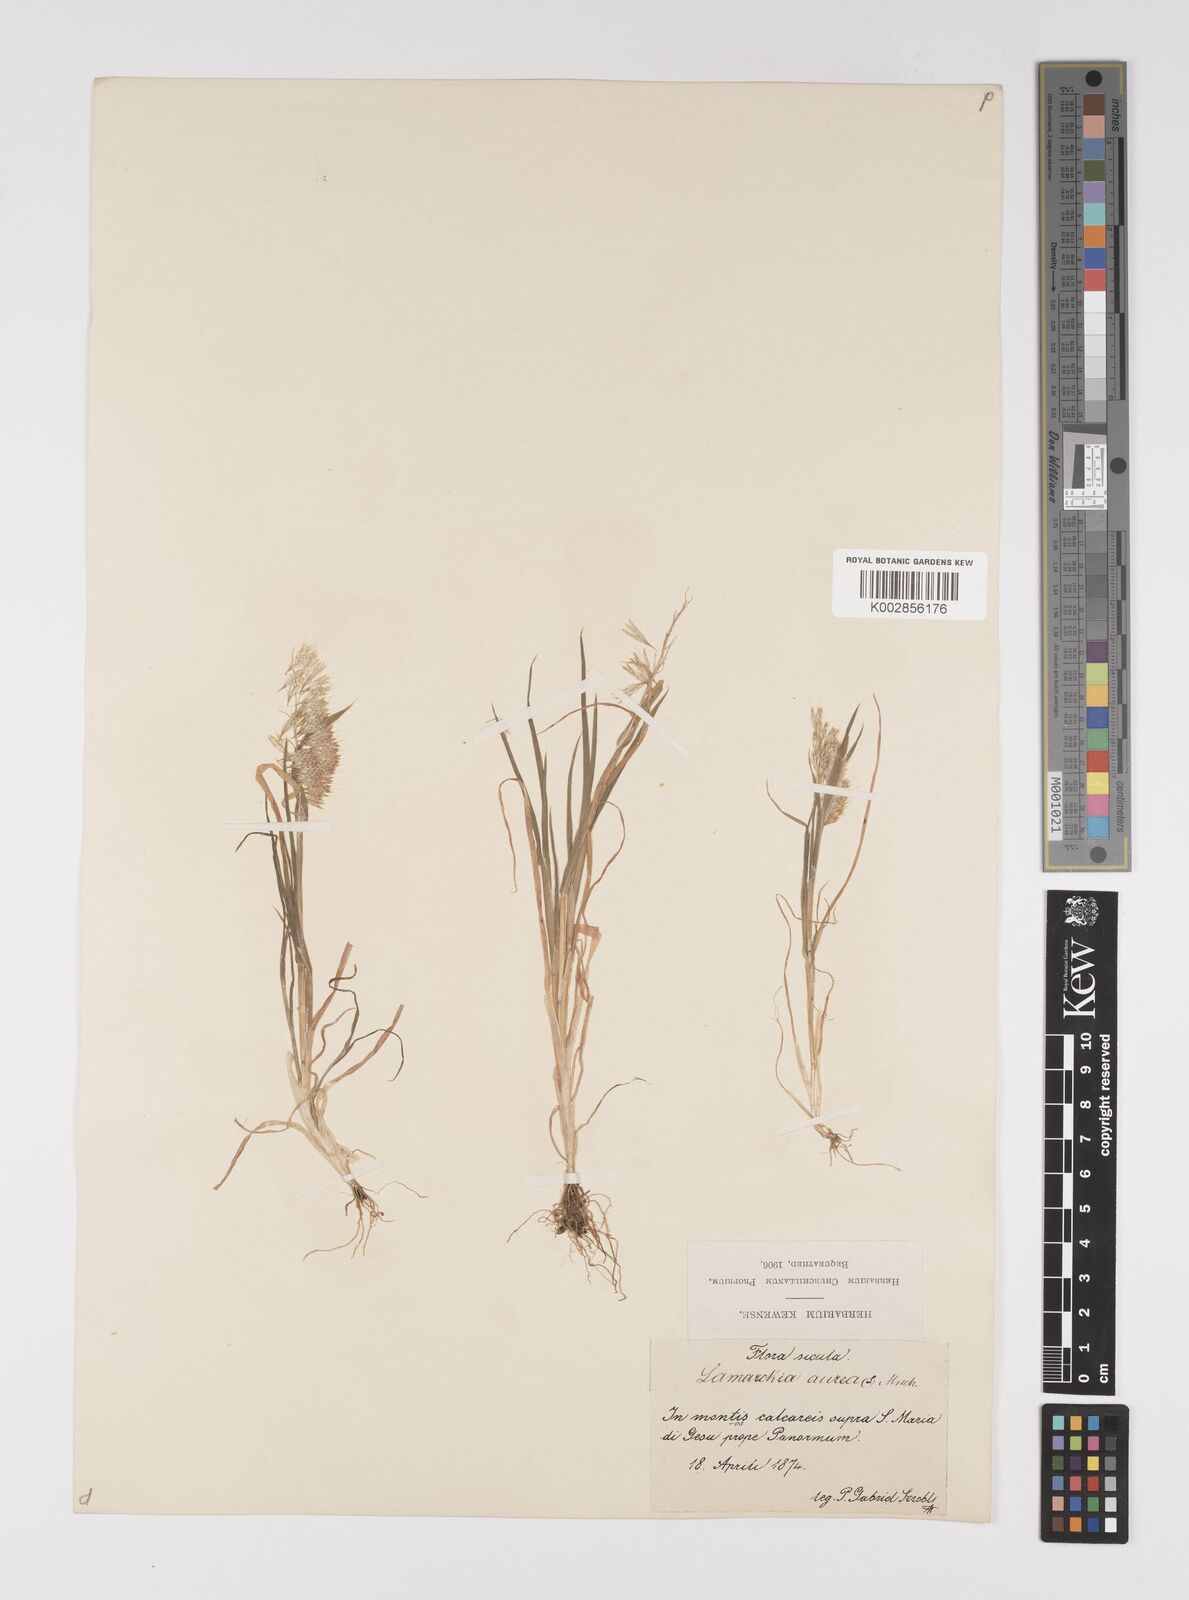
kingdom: Plantae
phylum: Tracheophyta
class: Liliopsida
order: Poales
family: Poaceae
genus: Lamarckia
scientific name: Lamarckia aurea
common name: Golden dog's-tail
